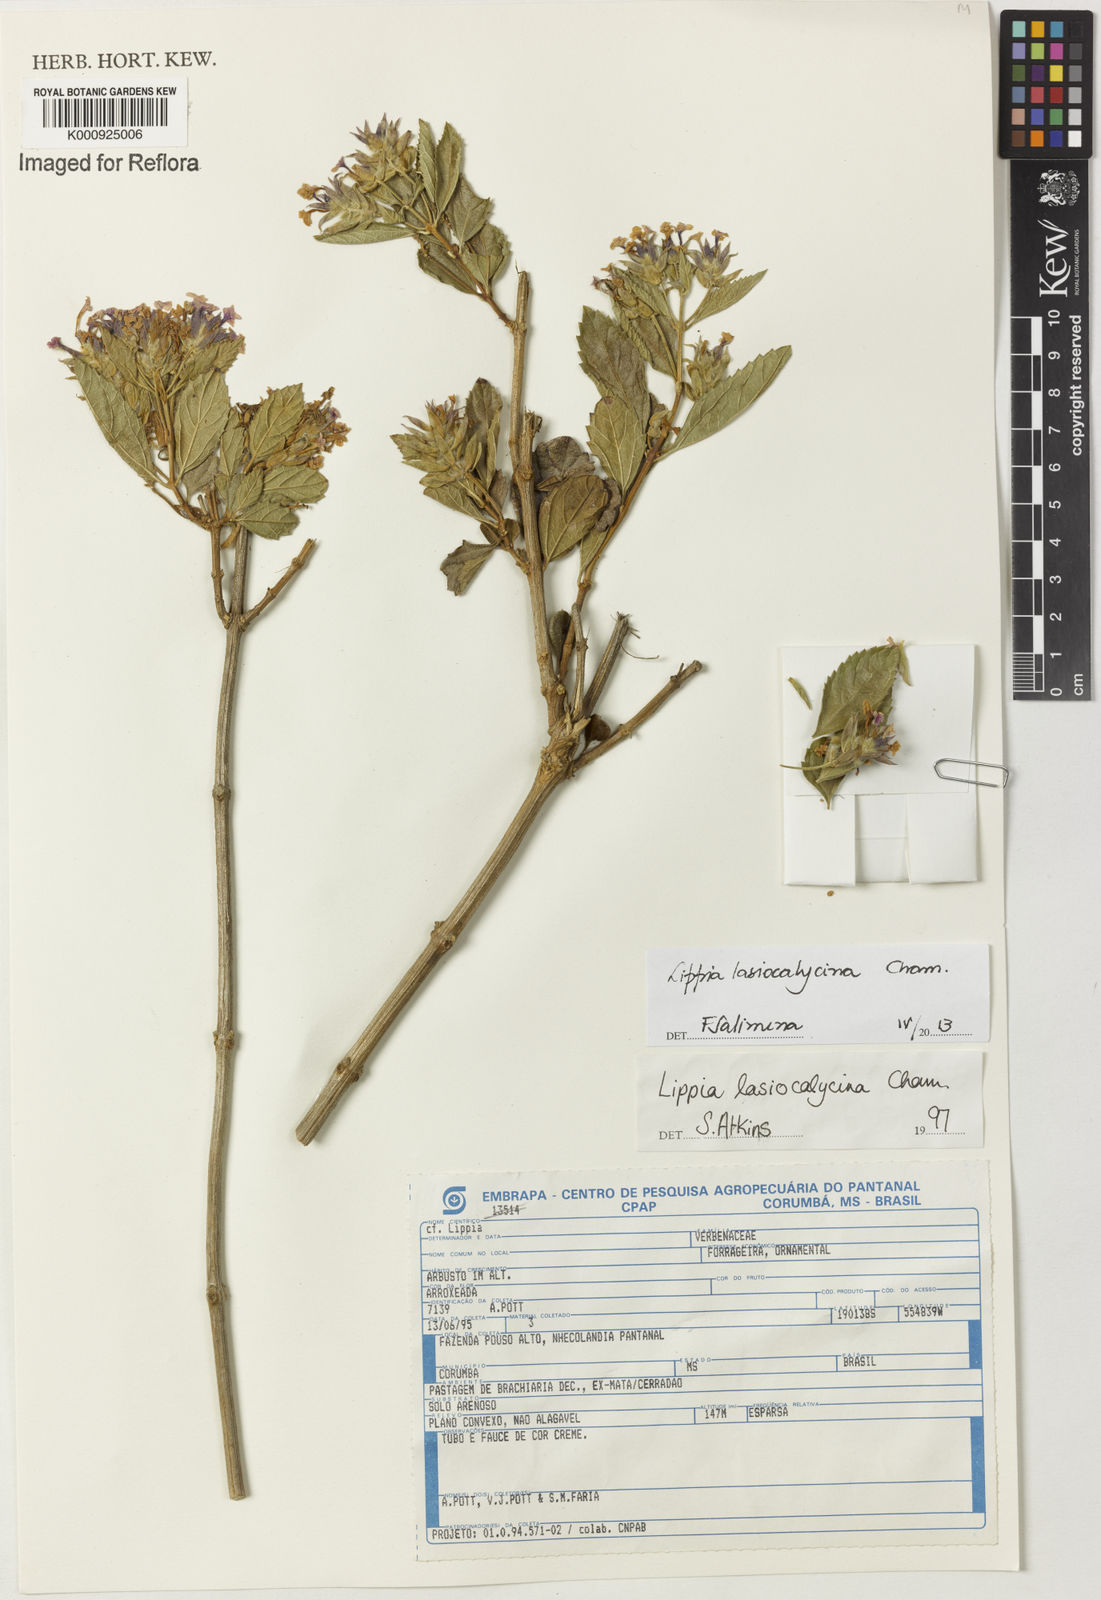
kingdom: Plantae
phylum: Tracheophyta
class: Magnoliopsida
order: Lamiales
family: Verbenaceae
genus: Lippia
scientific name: Lippia lasiocalycina
